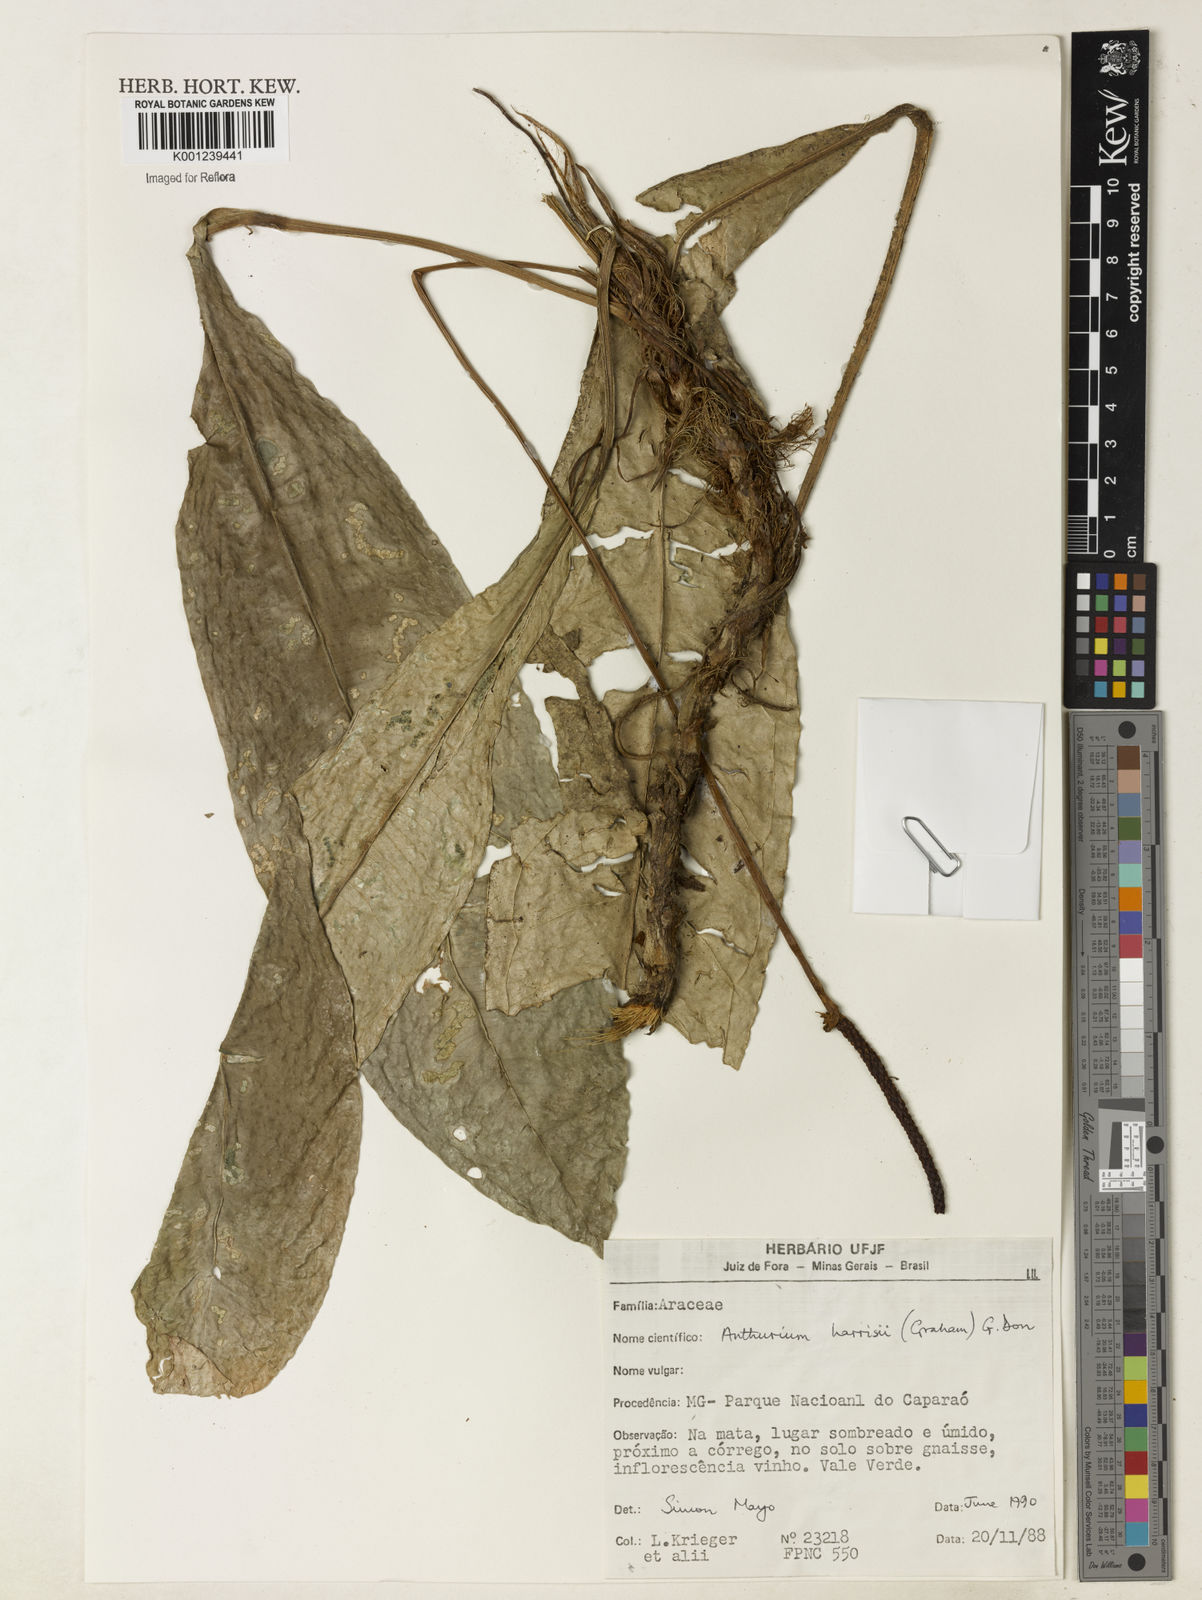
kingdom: Plantae
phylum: Tracheophyta
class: Liliopsida
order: Alismatales
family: Araceae
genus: Anthurium
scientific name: Anthurium harrisii
